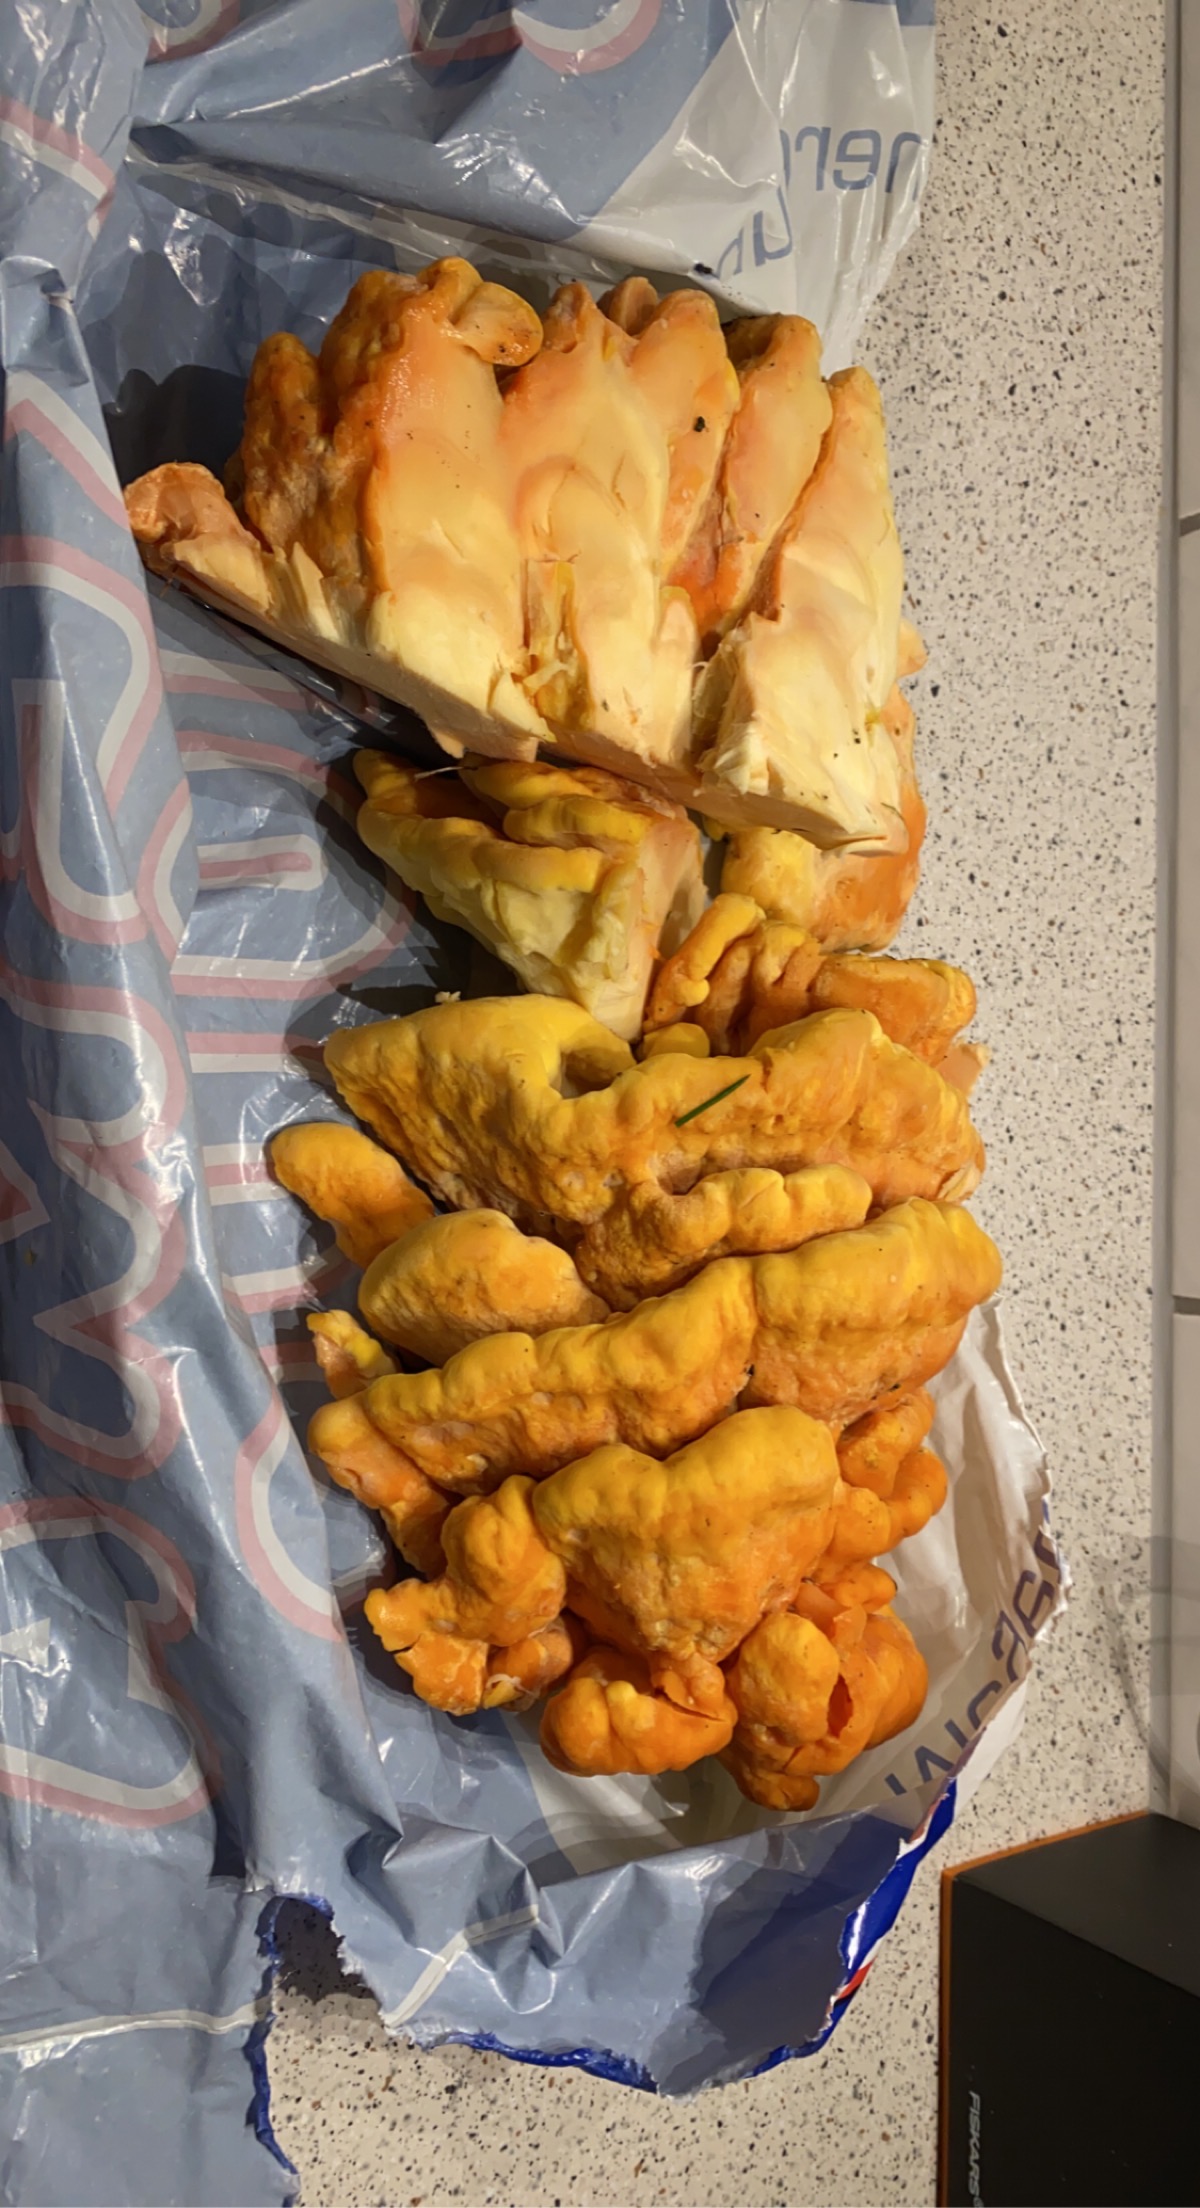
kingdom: Fungi
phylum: Basidiomycota
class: Agaricomycetes
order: Polyporales
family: Laetiporaceae
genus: Laetiporus
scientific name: Laetiporus sulphureus
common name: svovlporesvamp
